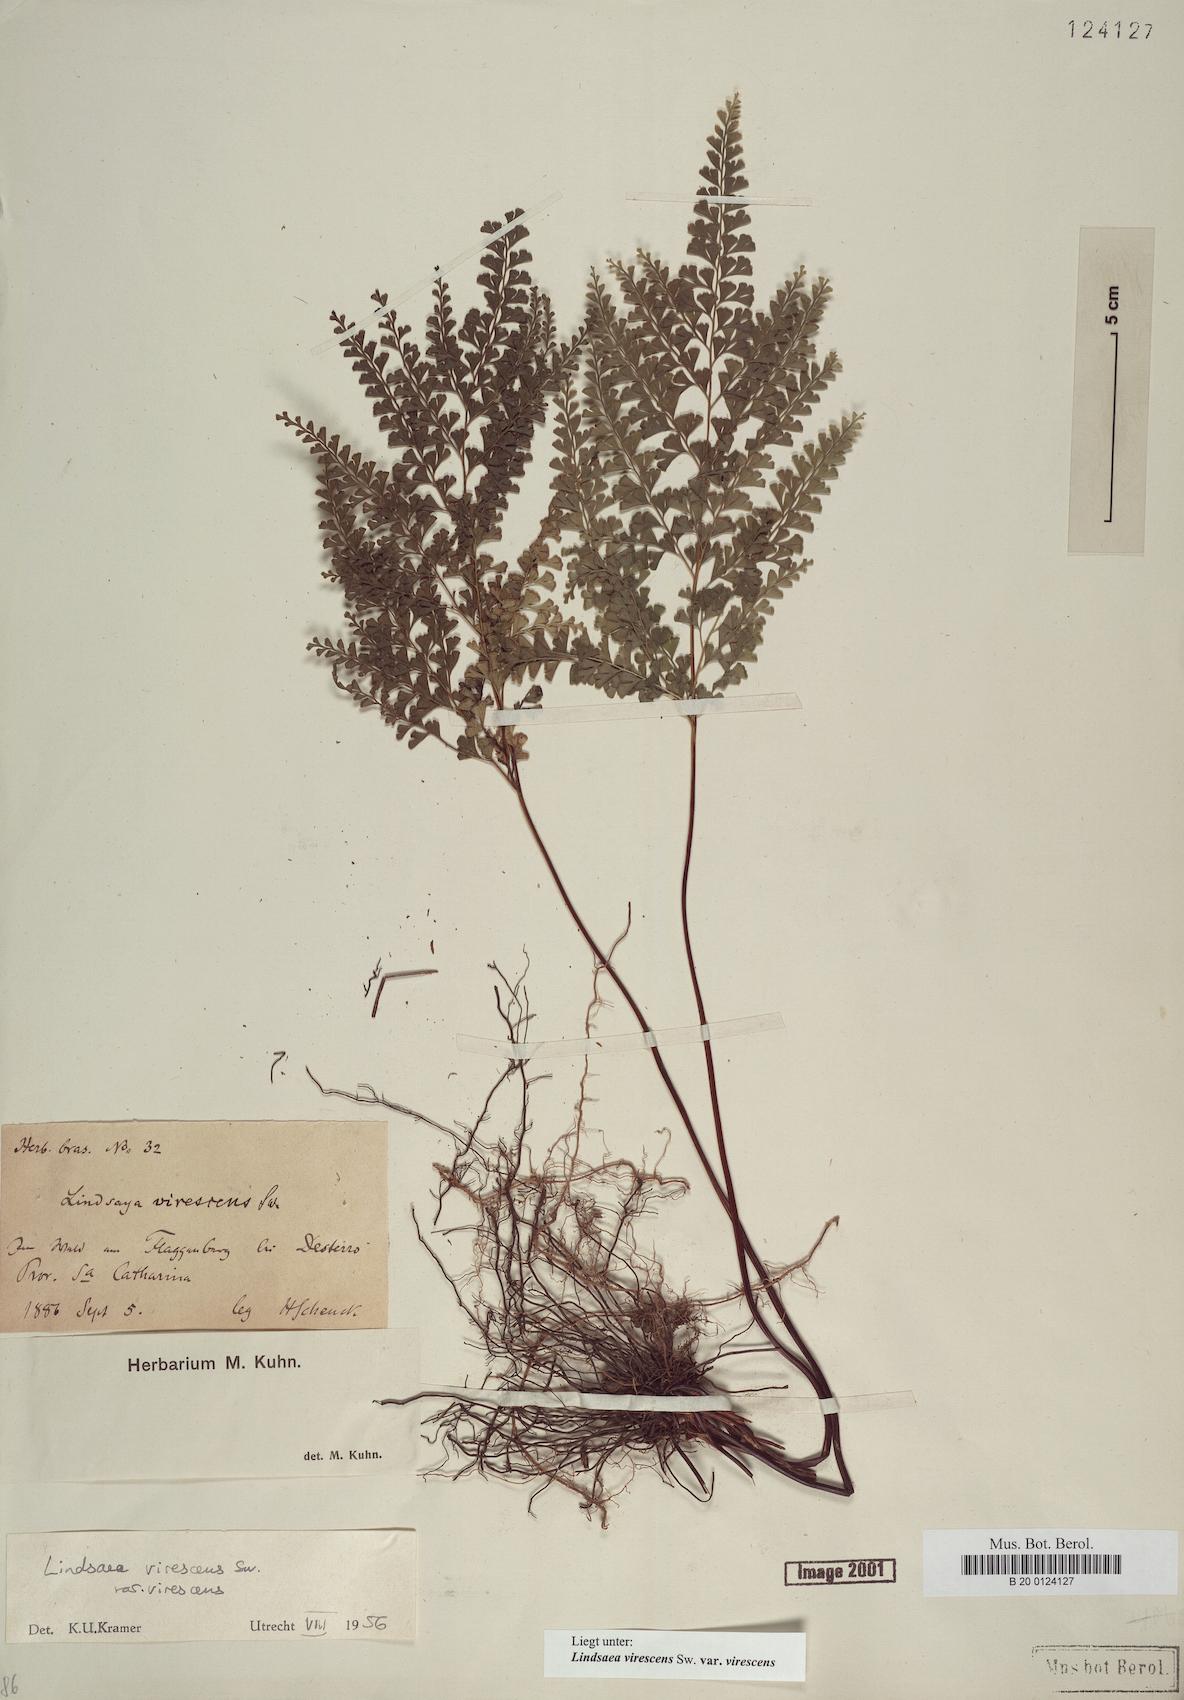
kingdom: Plantae
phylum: Tracheophyta
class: Polypodiopsida
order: Polypodiales
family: Lindsaeaceae
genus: Lindsaea
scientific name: Lindsaea virescens
